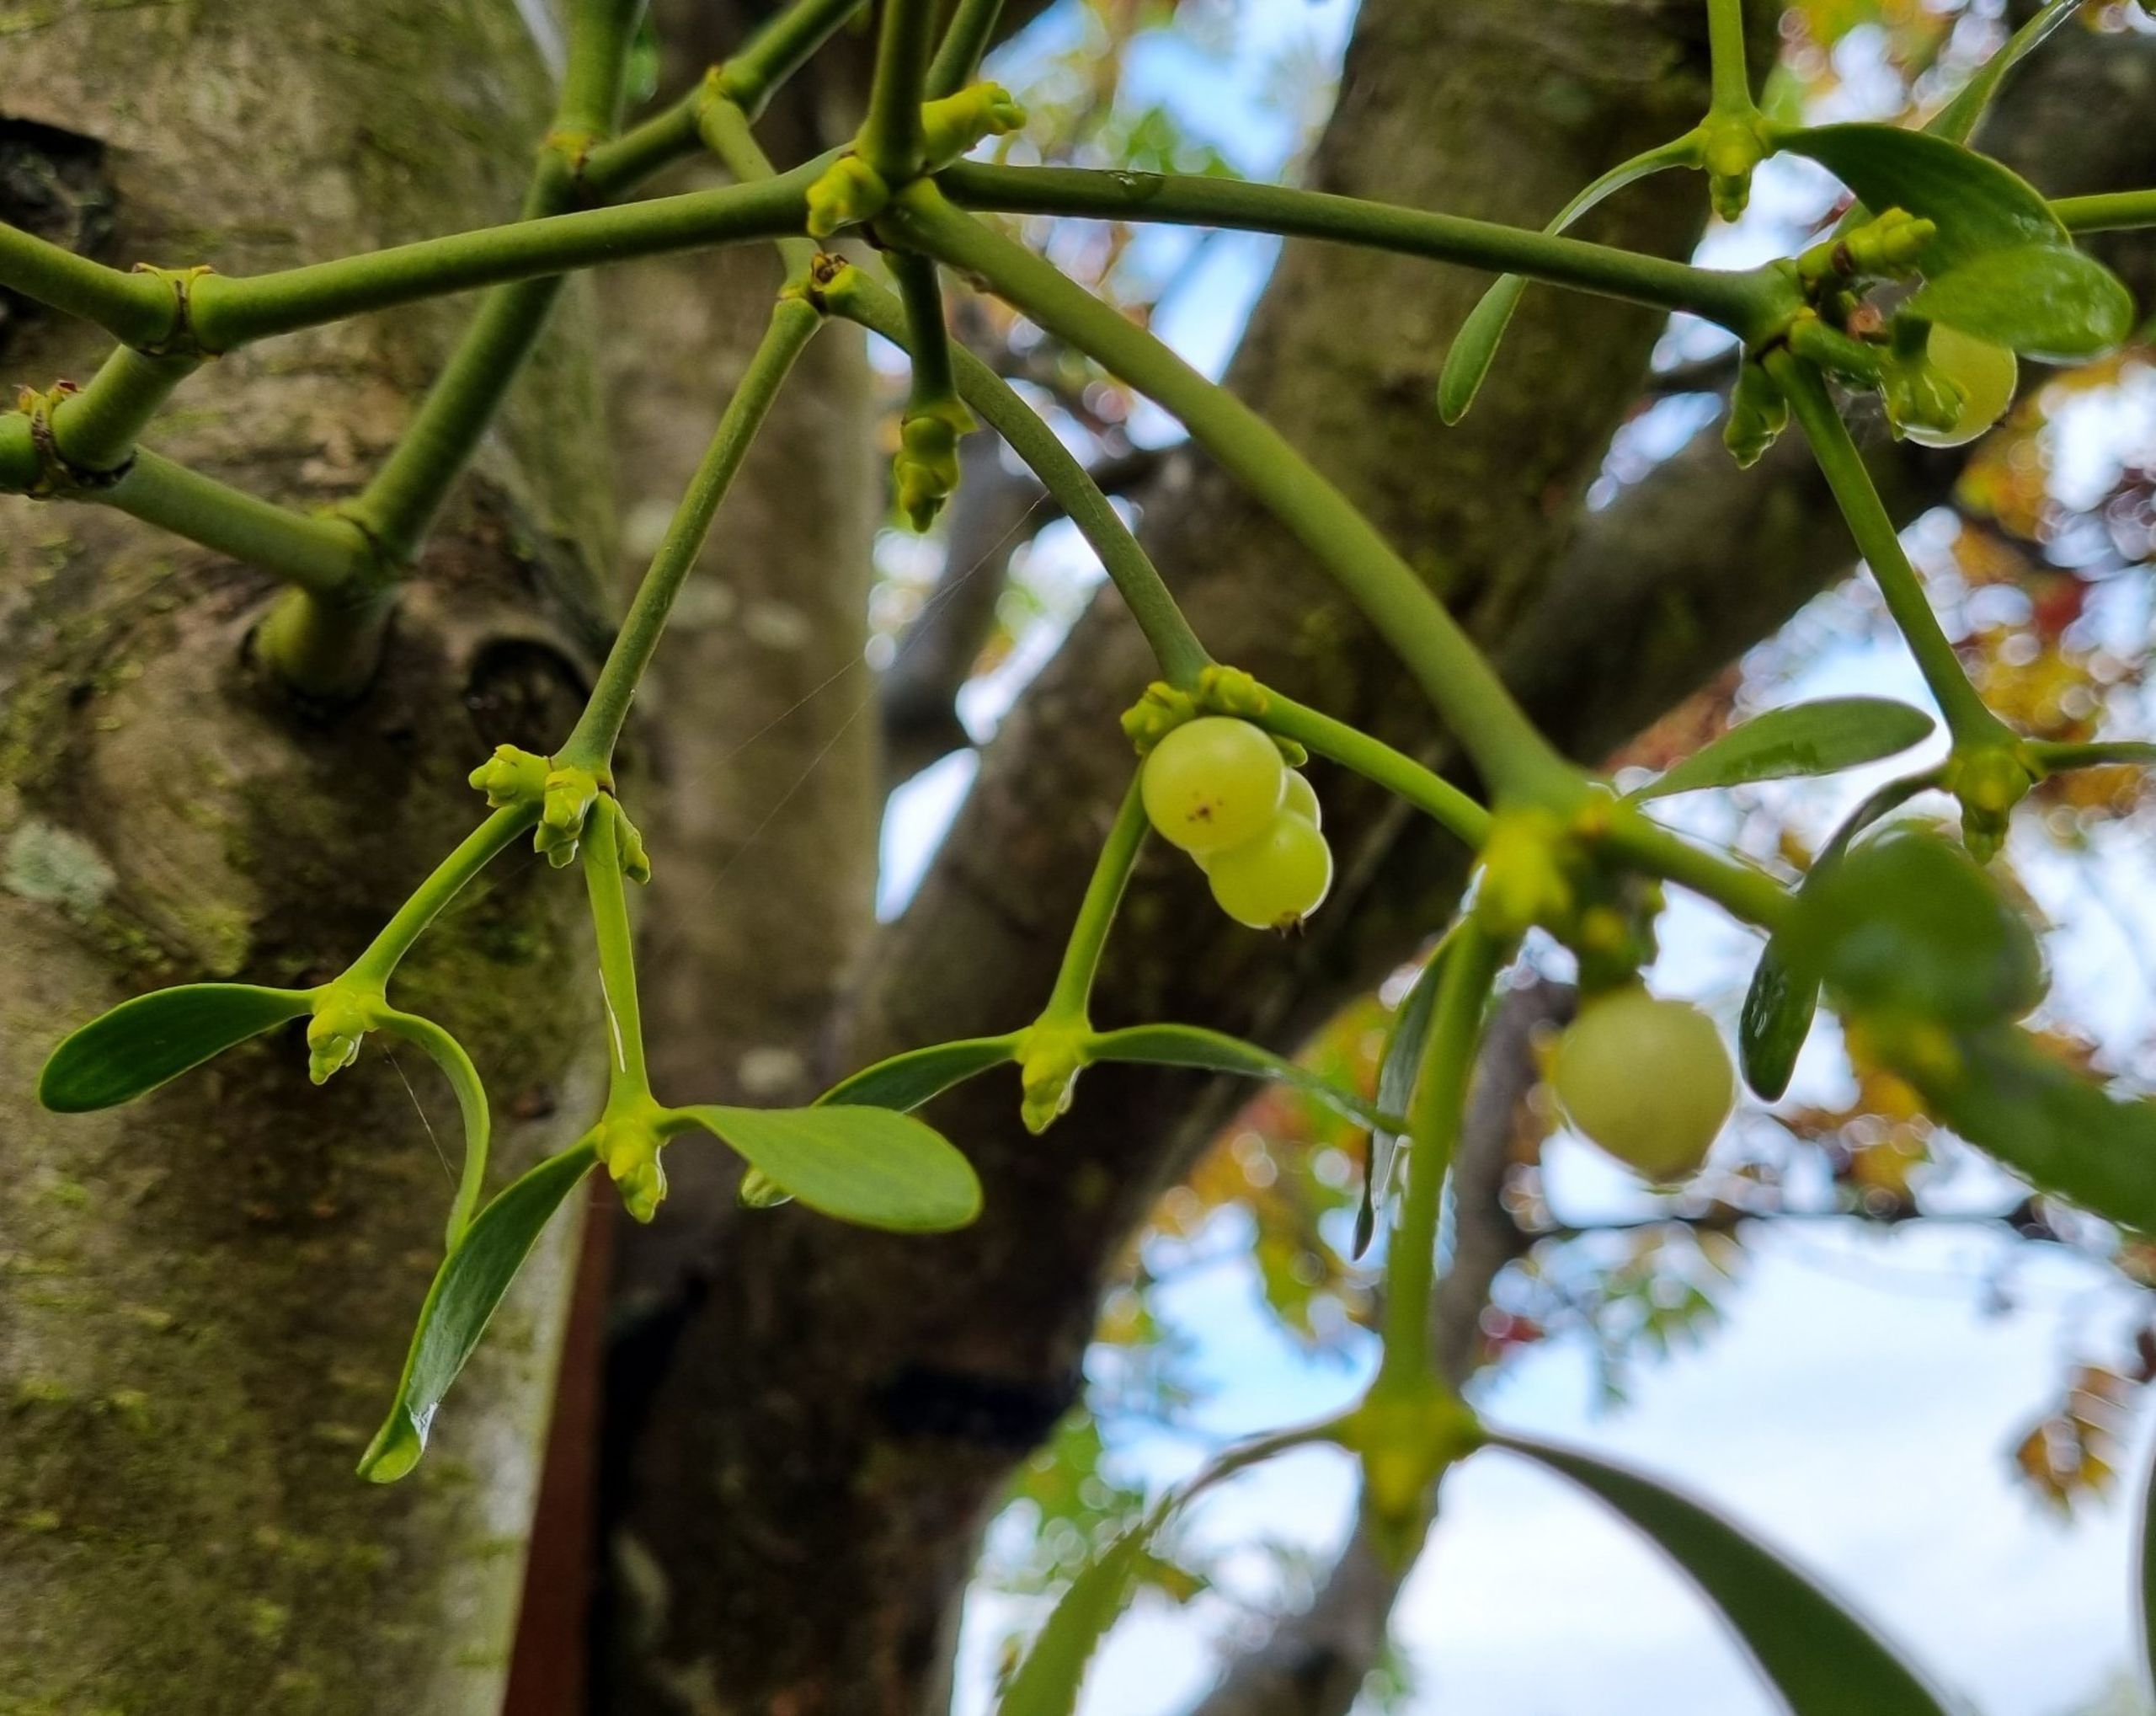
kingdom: Plantae
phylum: Tracheophyta
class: Magnoliopsida
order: Santalales
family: Viscaceae
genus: Viscum
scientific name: Viscum album
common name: Mistelten
